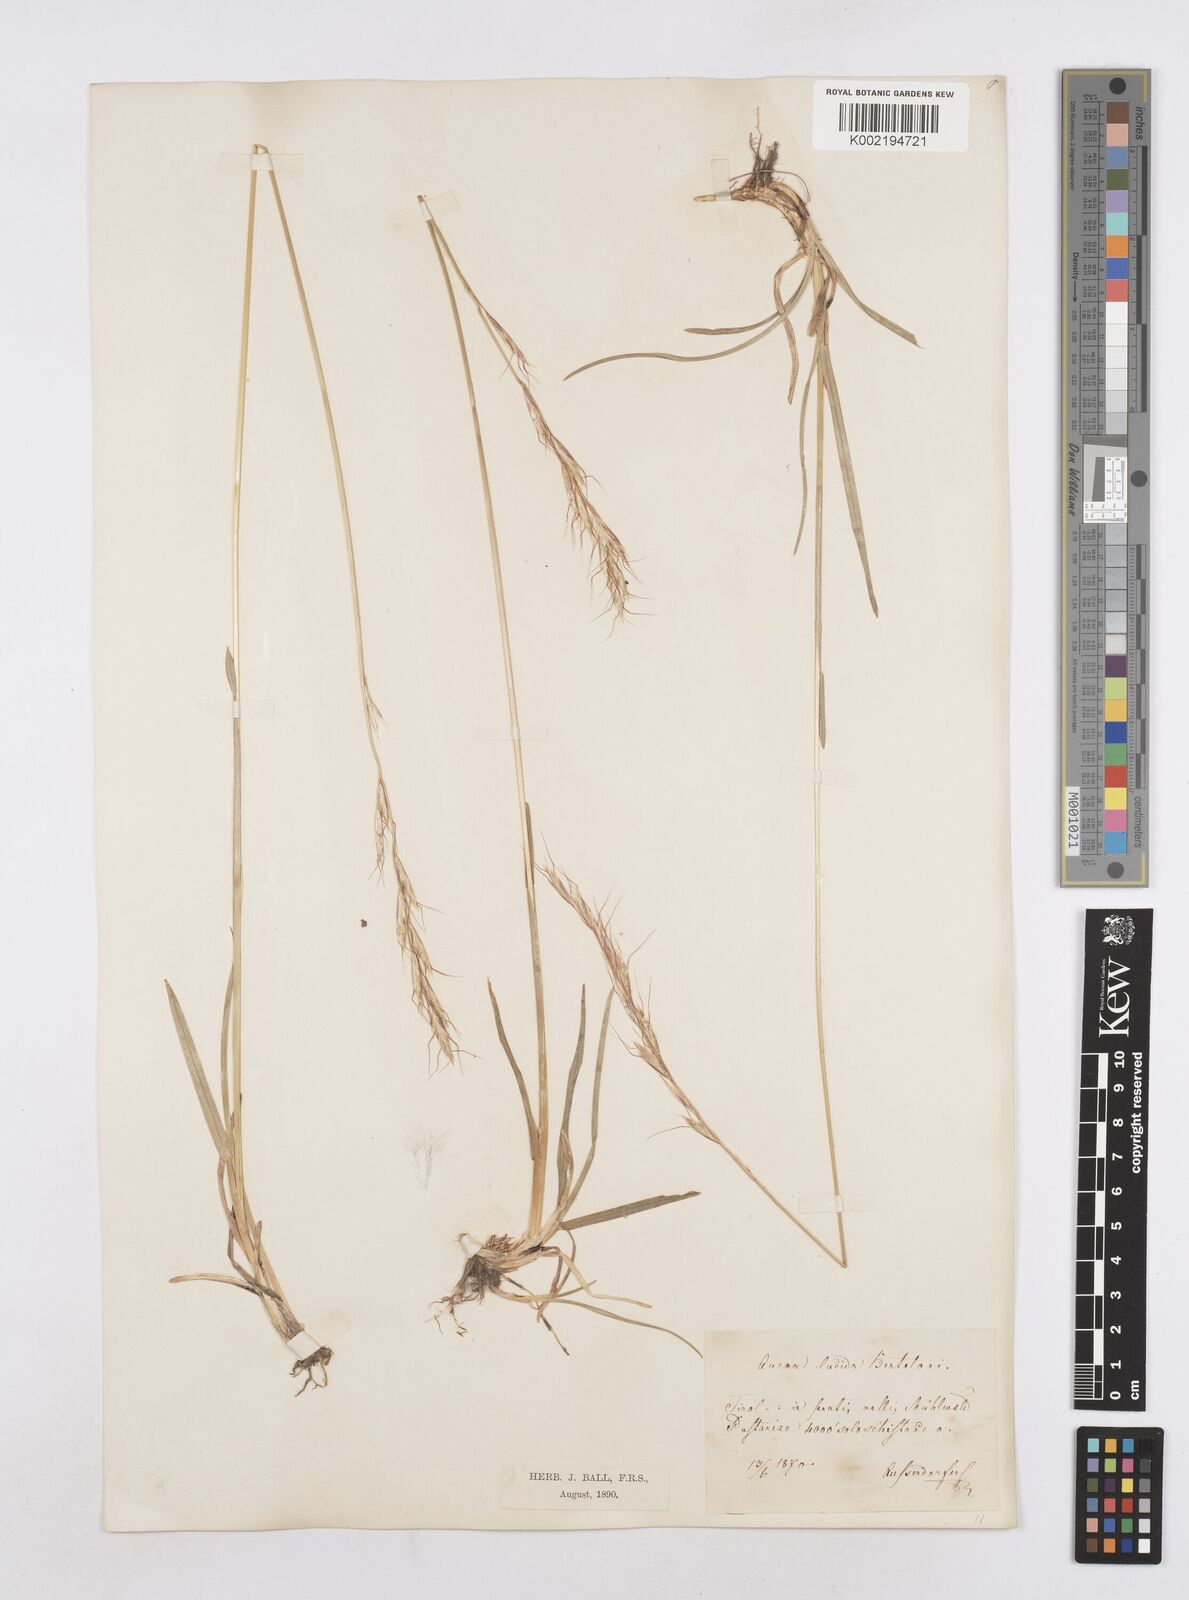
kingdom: Plantae
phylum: Tracheophyta
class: Liliopsida
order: Poales
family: Poaceae
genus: Avenula
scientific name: Avenula pubescens
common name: Downy alpine oatgrass
